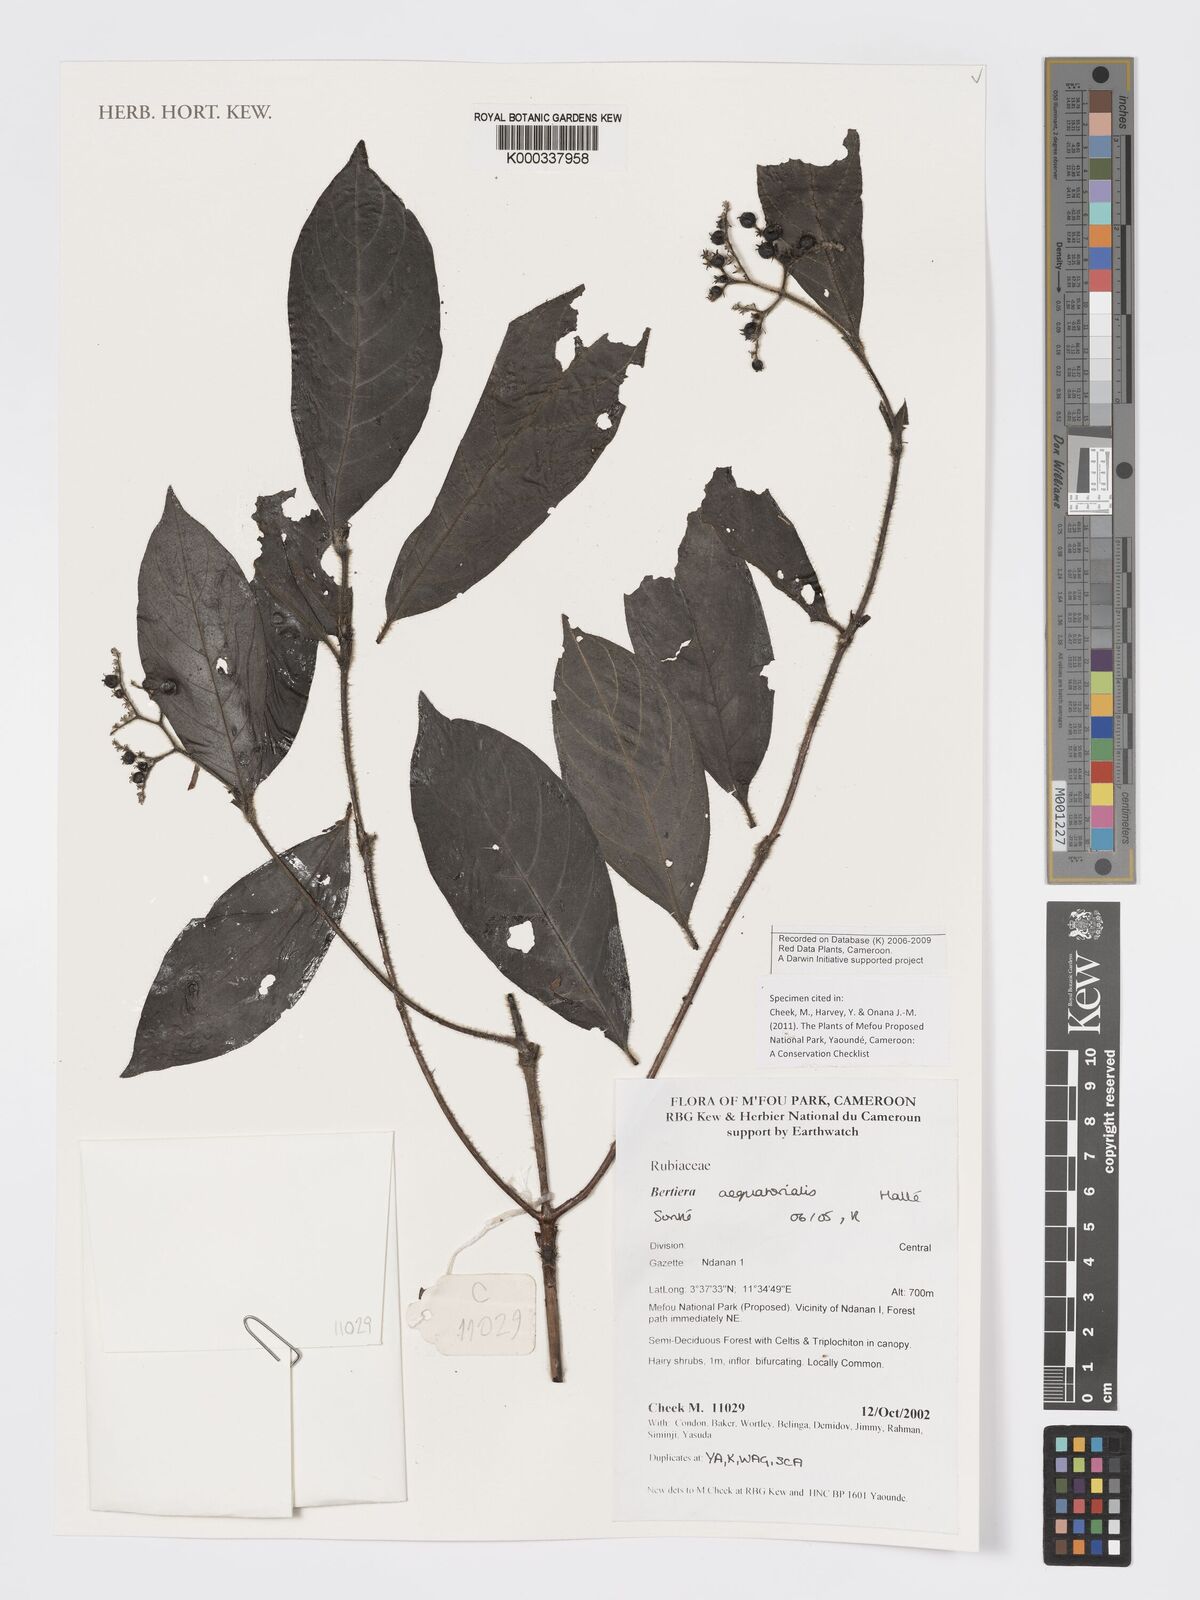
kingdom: Plantae
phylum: Tracheophyta
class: Magnoliopsida
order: Gentianales
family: Rubiaceae
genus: Bertiera
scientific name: Bertiera
